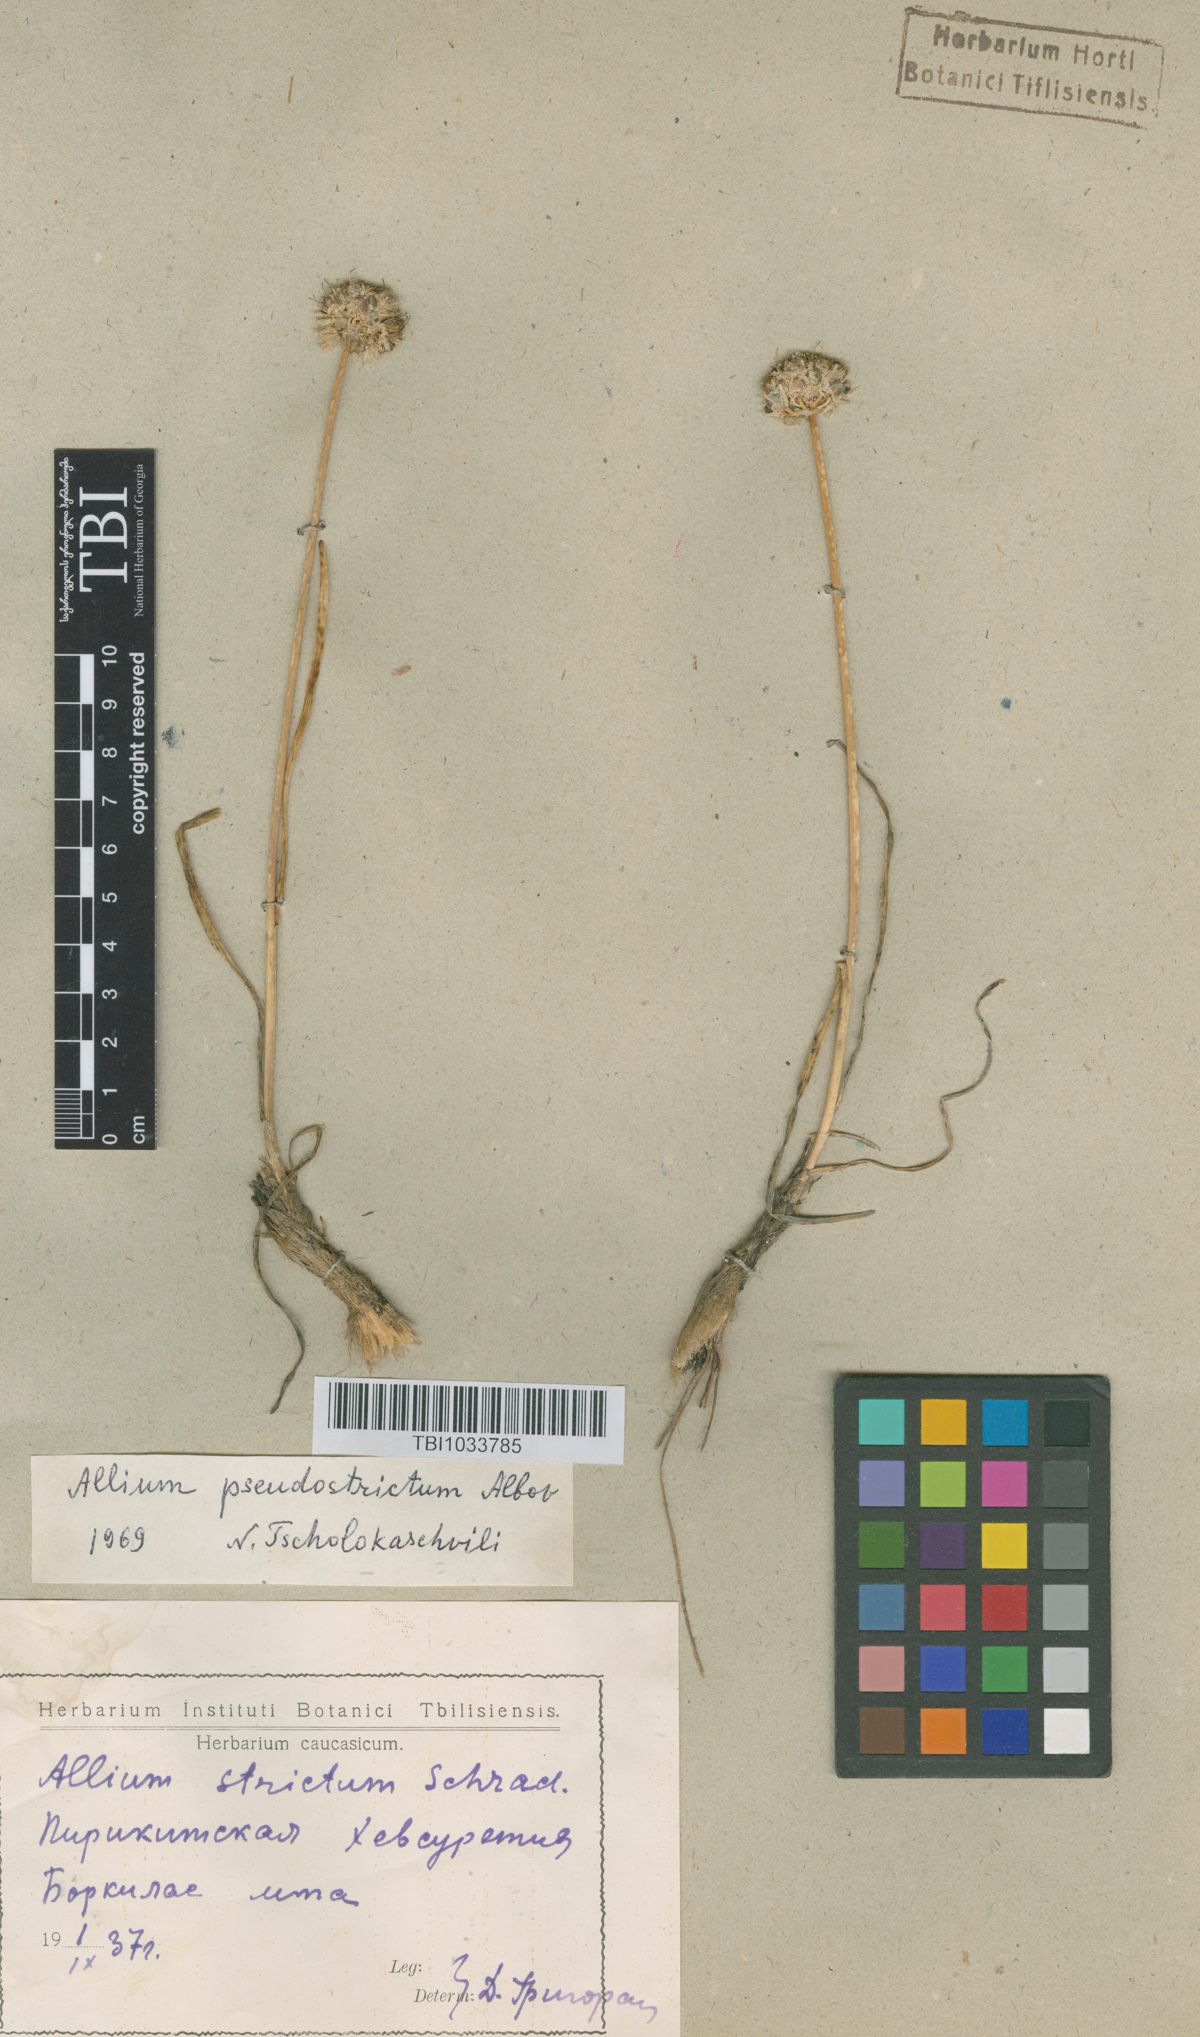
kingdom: Plantae
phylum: Tracheophyta
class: Liliopsida
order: Asparagales
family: Amaryllidaceae
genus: Allium
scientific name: Allium pseudostrictum
